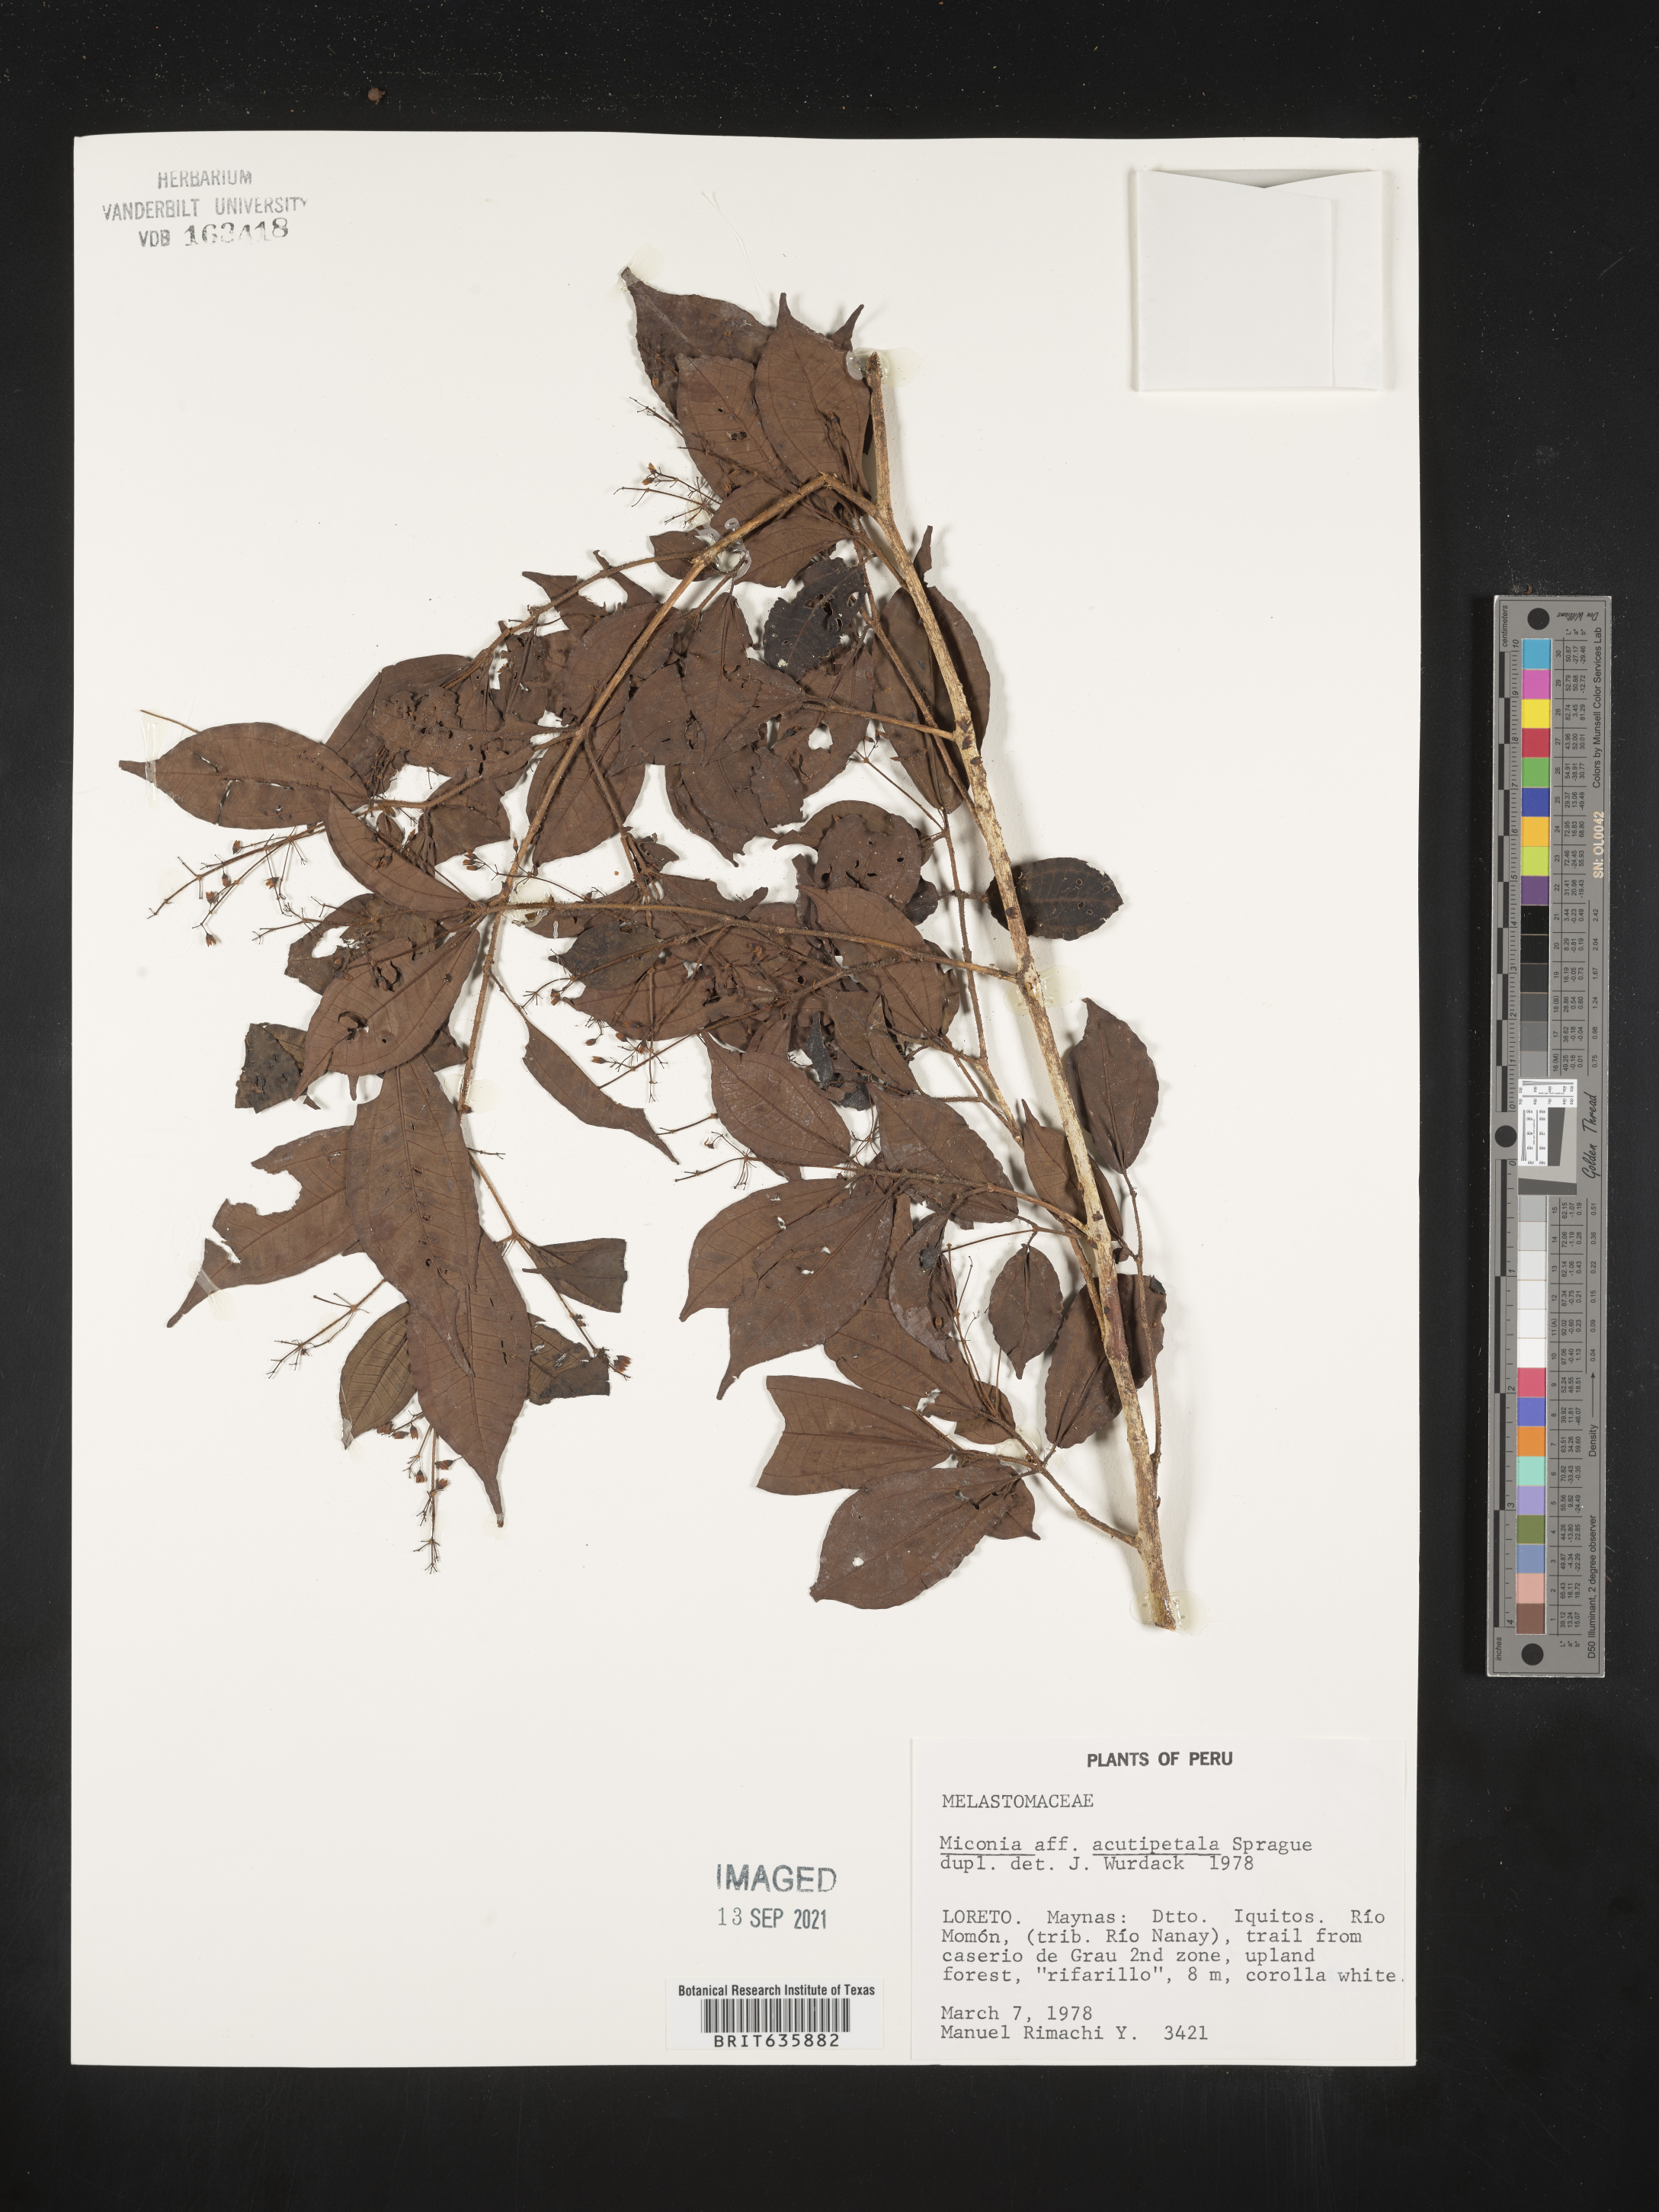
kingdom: Plantae
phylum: Tracheophyta
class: Magnoliopsida
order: Myrtales
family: Melastomataceae
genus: Miconia
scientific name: Miconia
